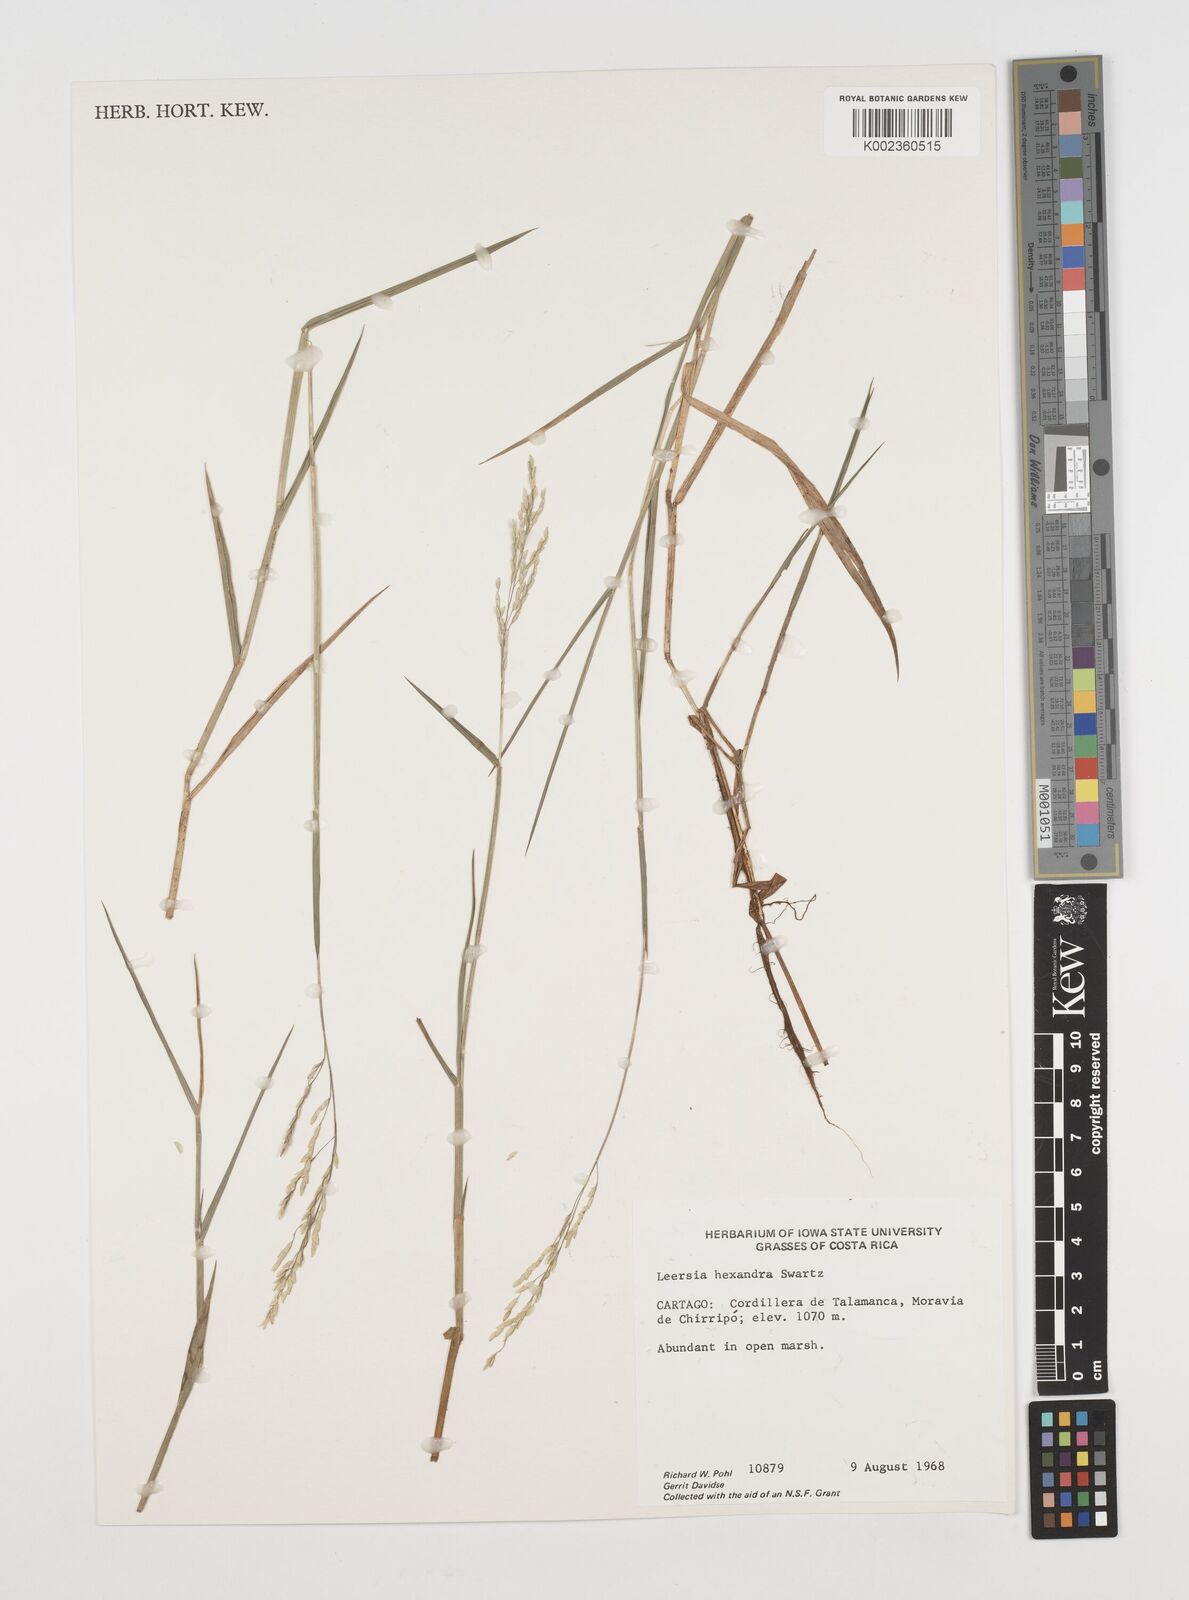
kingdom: Plantae
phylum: Tracheophyta
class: Liliopsida
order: Poales
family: Poaceae
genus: Leersia
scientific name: Leersia hexandra
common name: Southern cut grass
